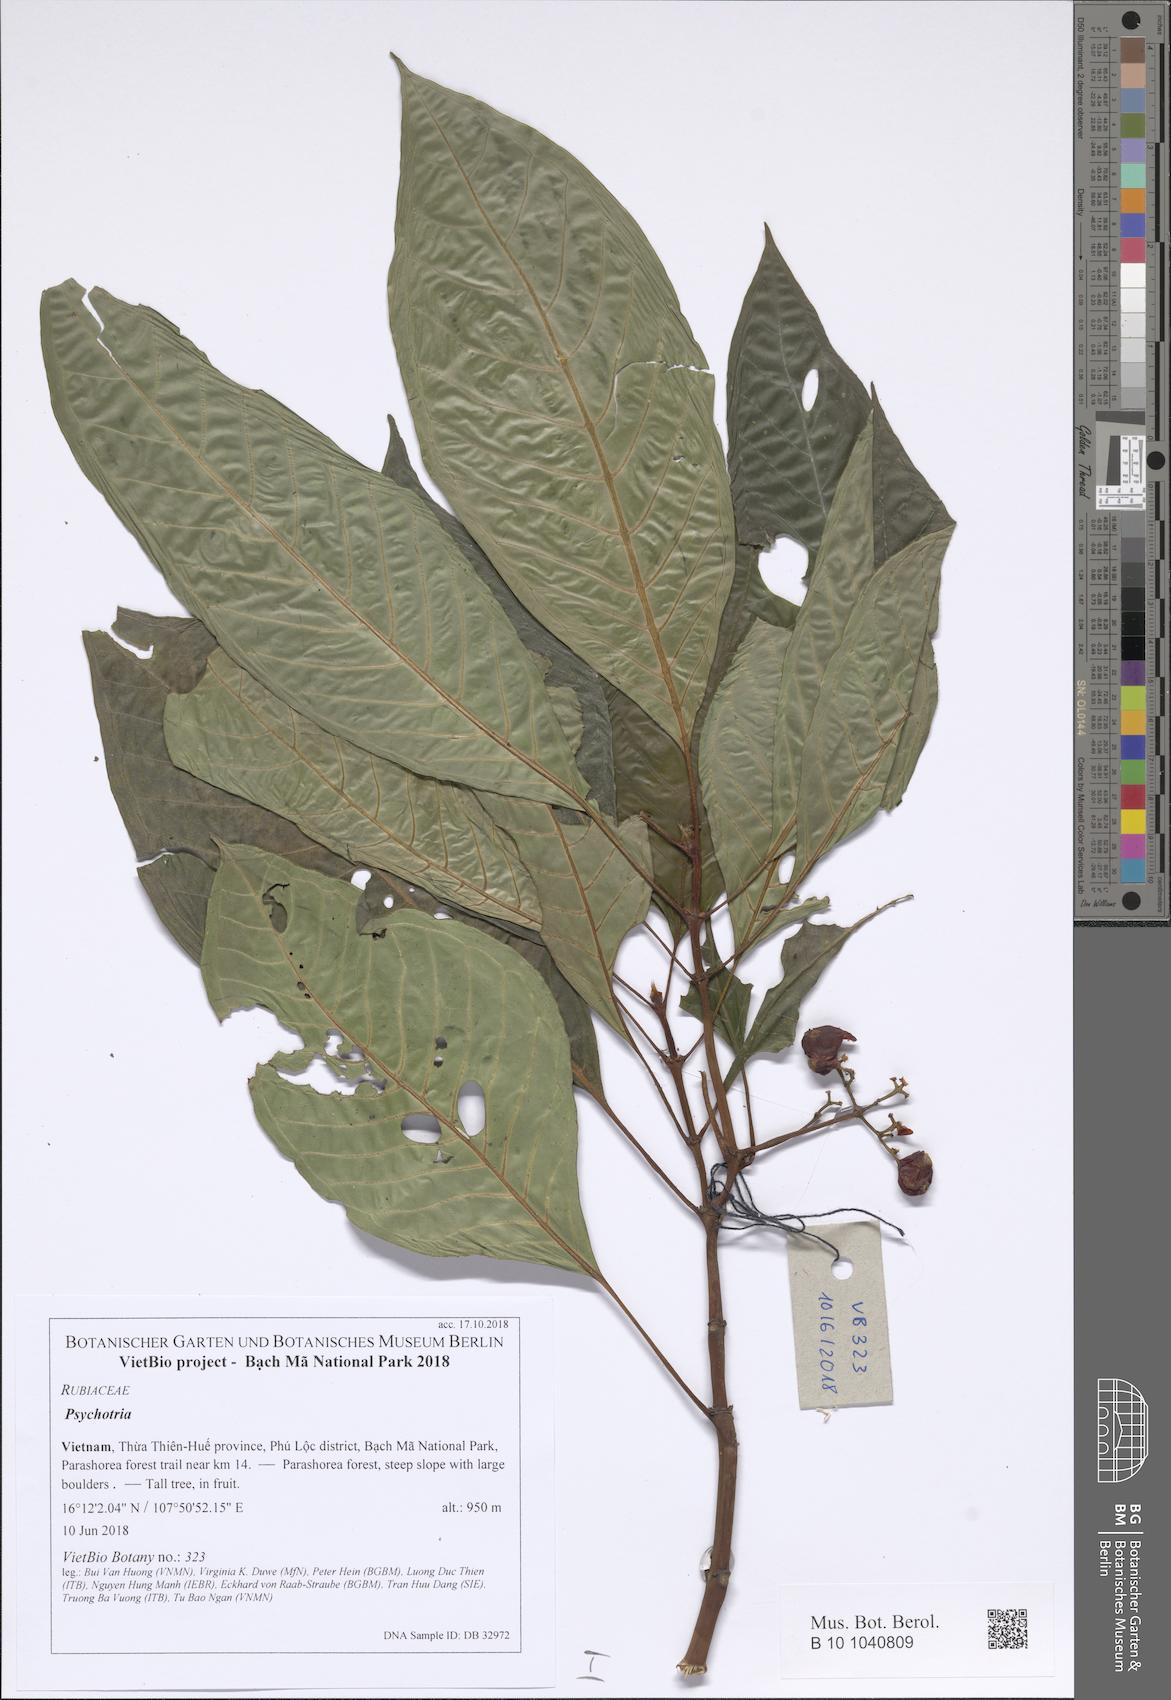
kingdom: Plantae
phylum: Tracheophyta
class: Magnoliopsida
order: Gentianales
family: Rubiaceae
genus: Psychotria
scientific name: Psychotria bonii
